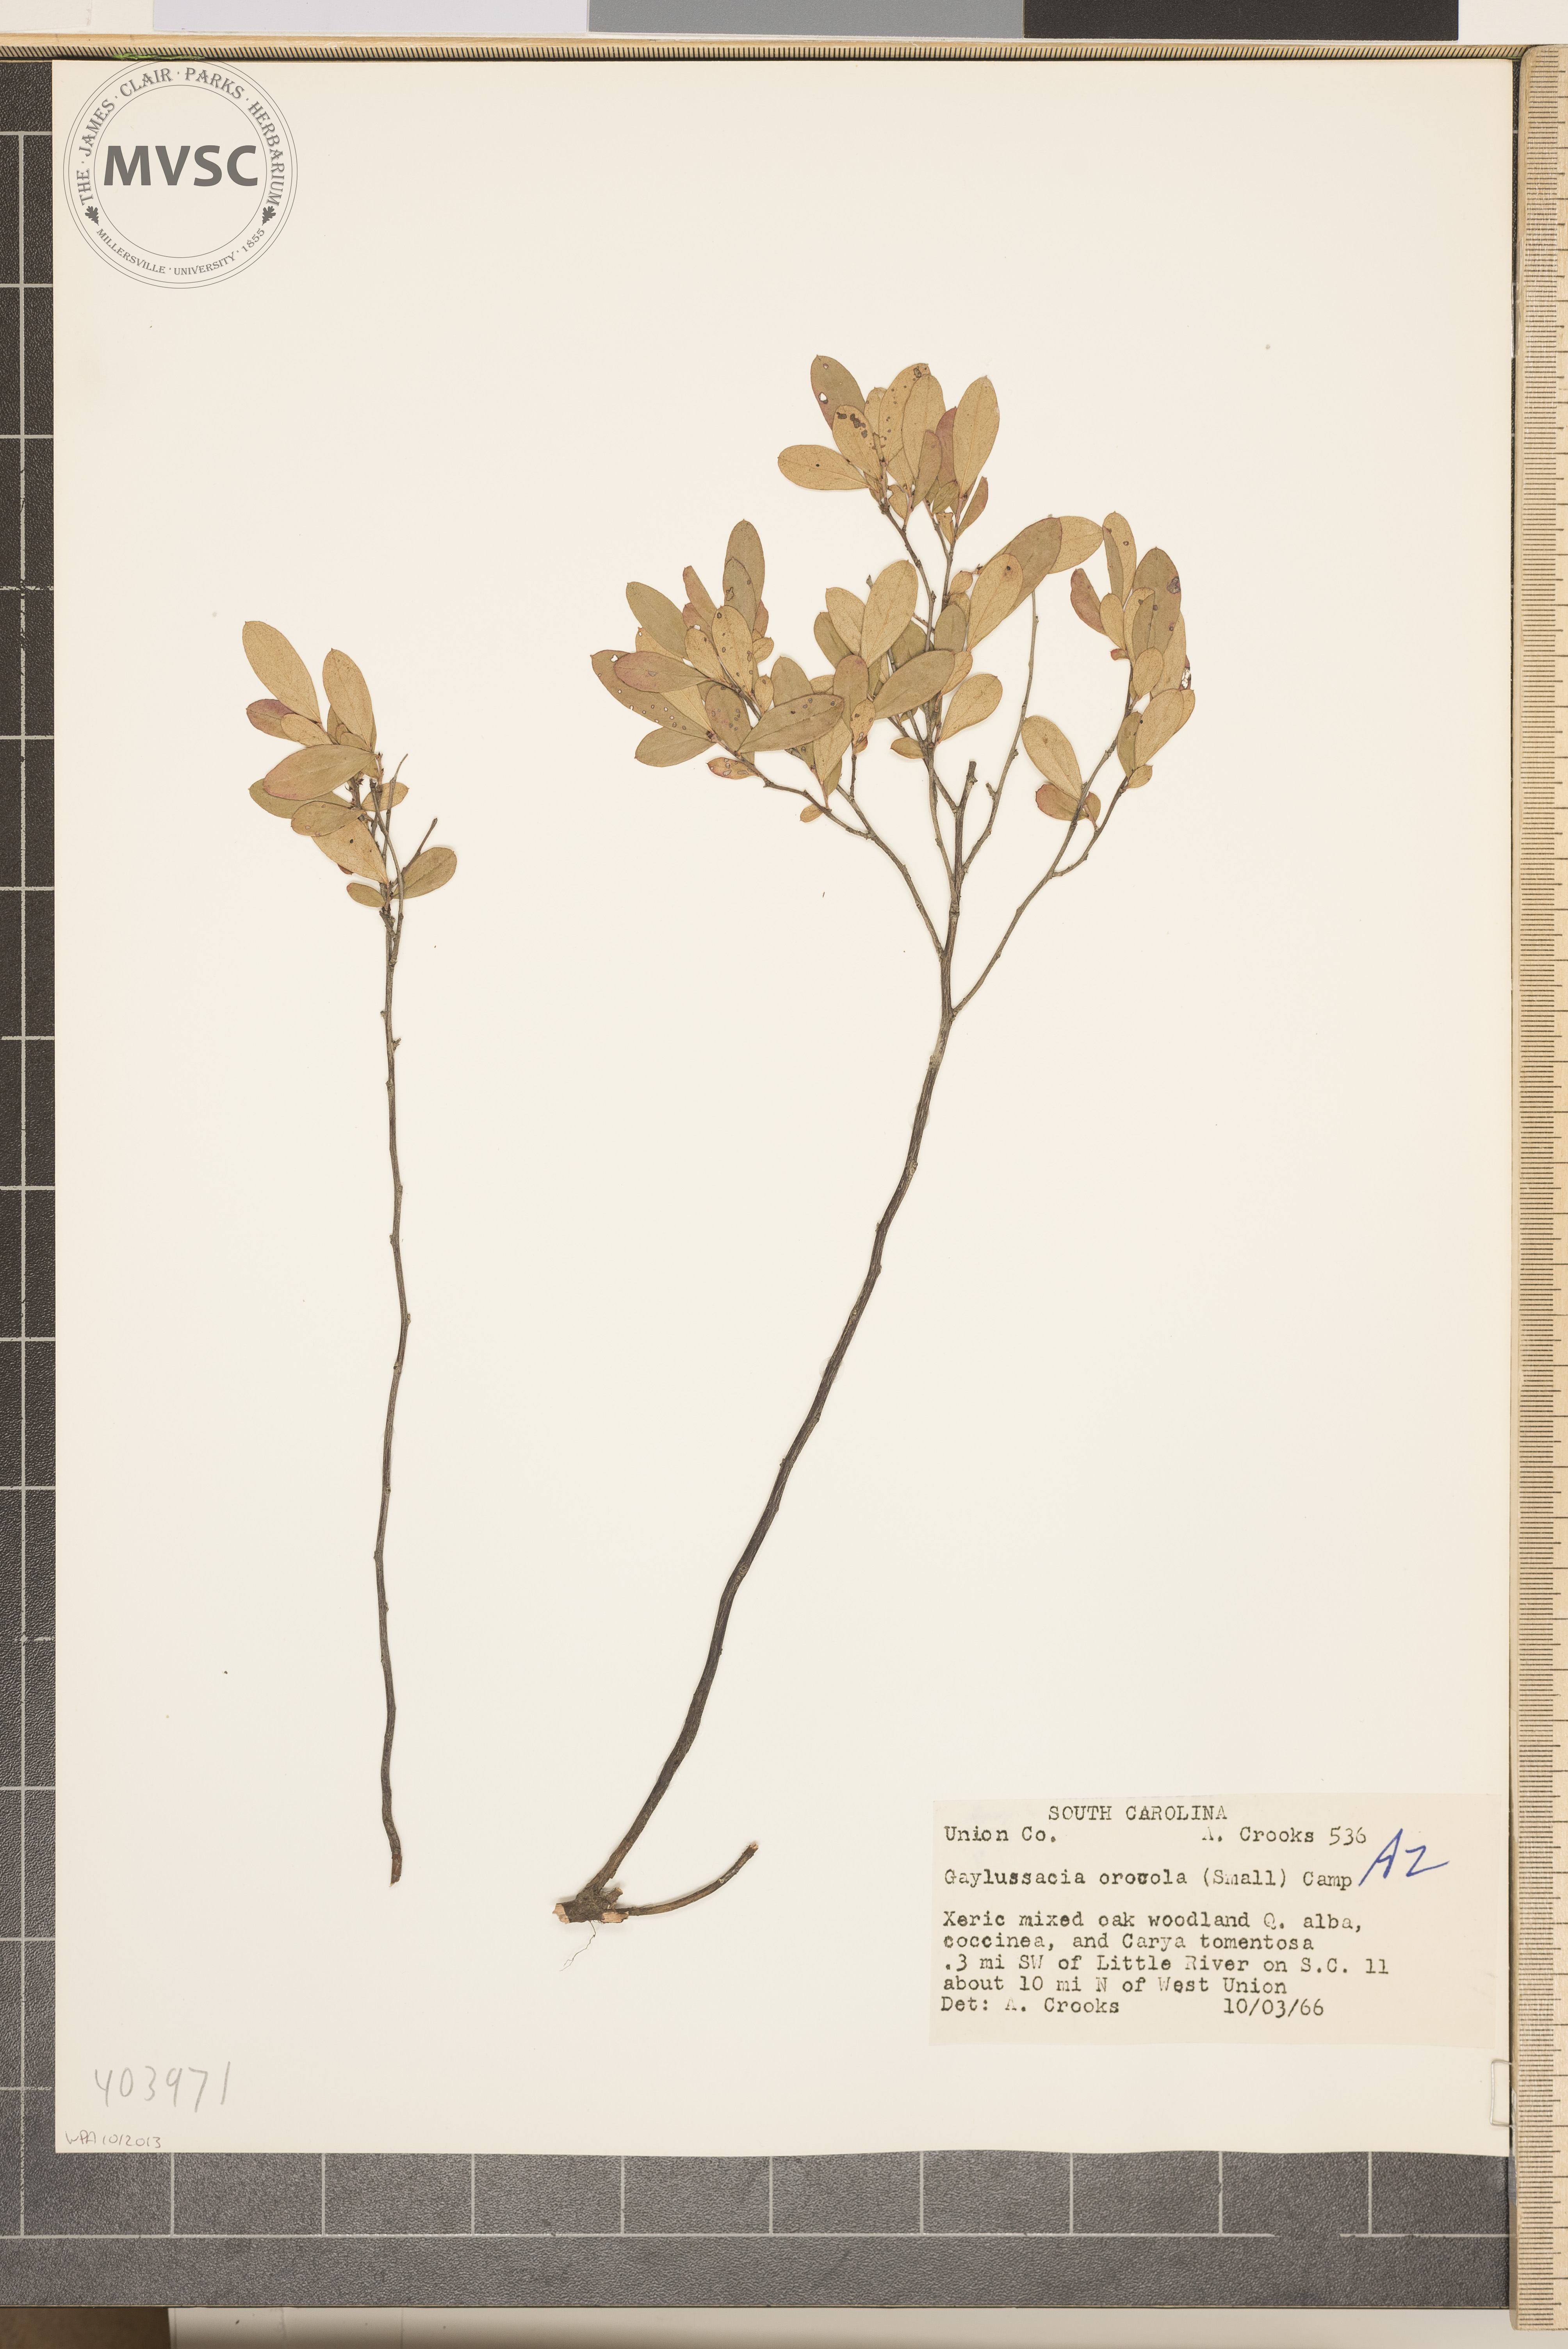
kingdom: Plantae
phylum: Tracheophyta
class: Magnoliopsida
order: Ericales
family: Ericaceae
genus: Gaylussacia
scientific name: Gaylussacia dumosa
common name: Dwarf huckleberry
